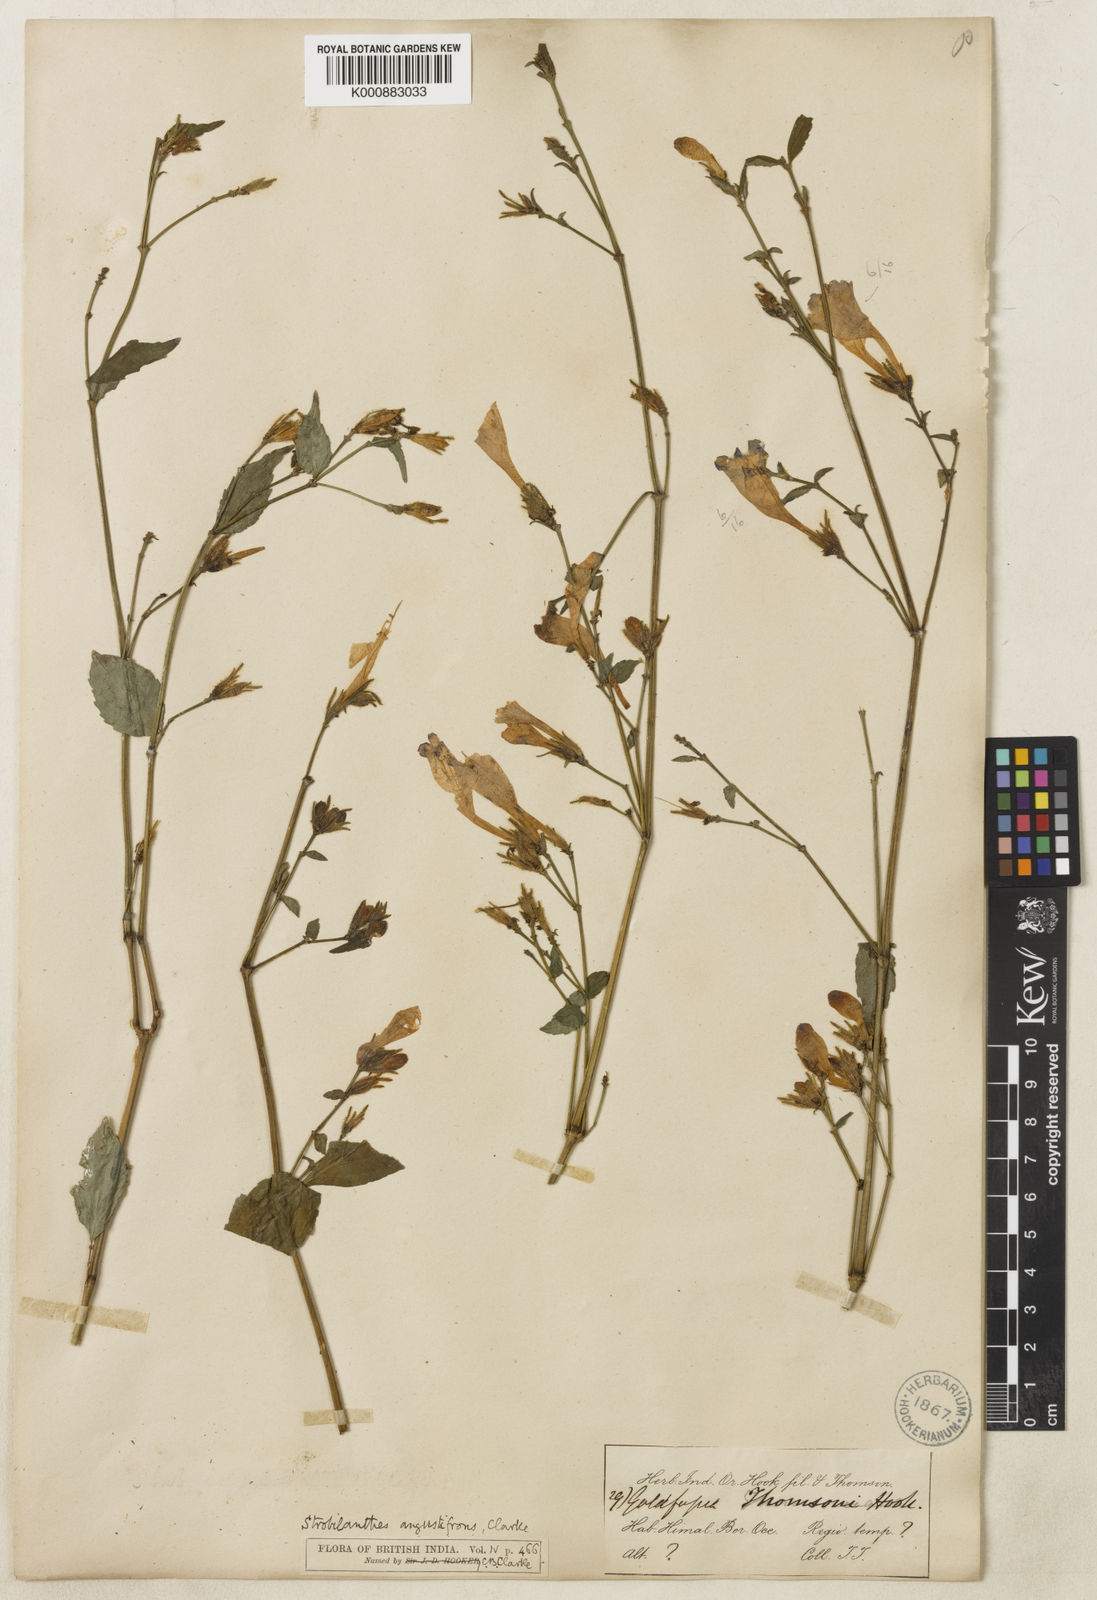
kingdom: Plantae
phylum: Tracheophyta
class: Magnoliopsida
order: Lamiales
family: Acanthaceae
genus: Strobilanthes
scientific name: Strobilanthes angustifrons
